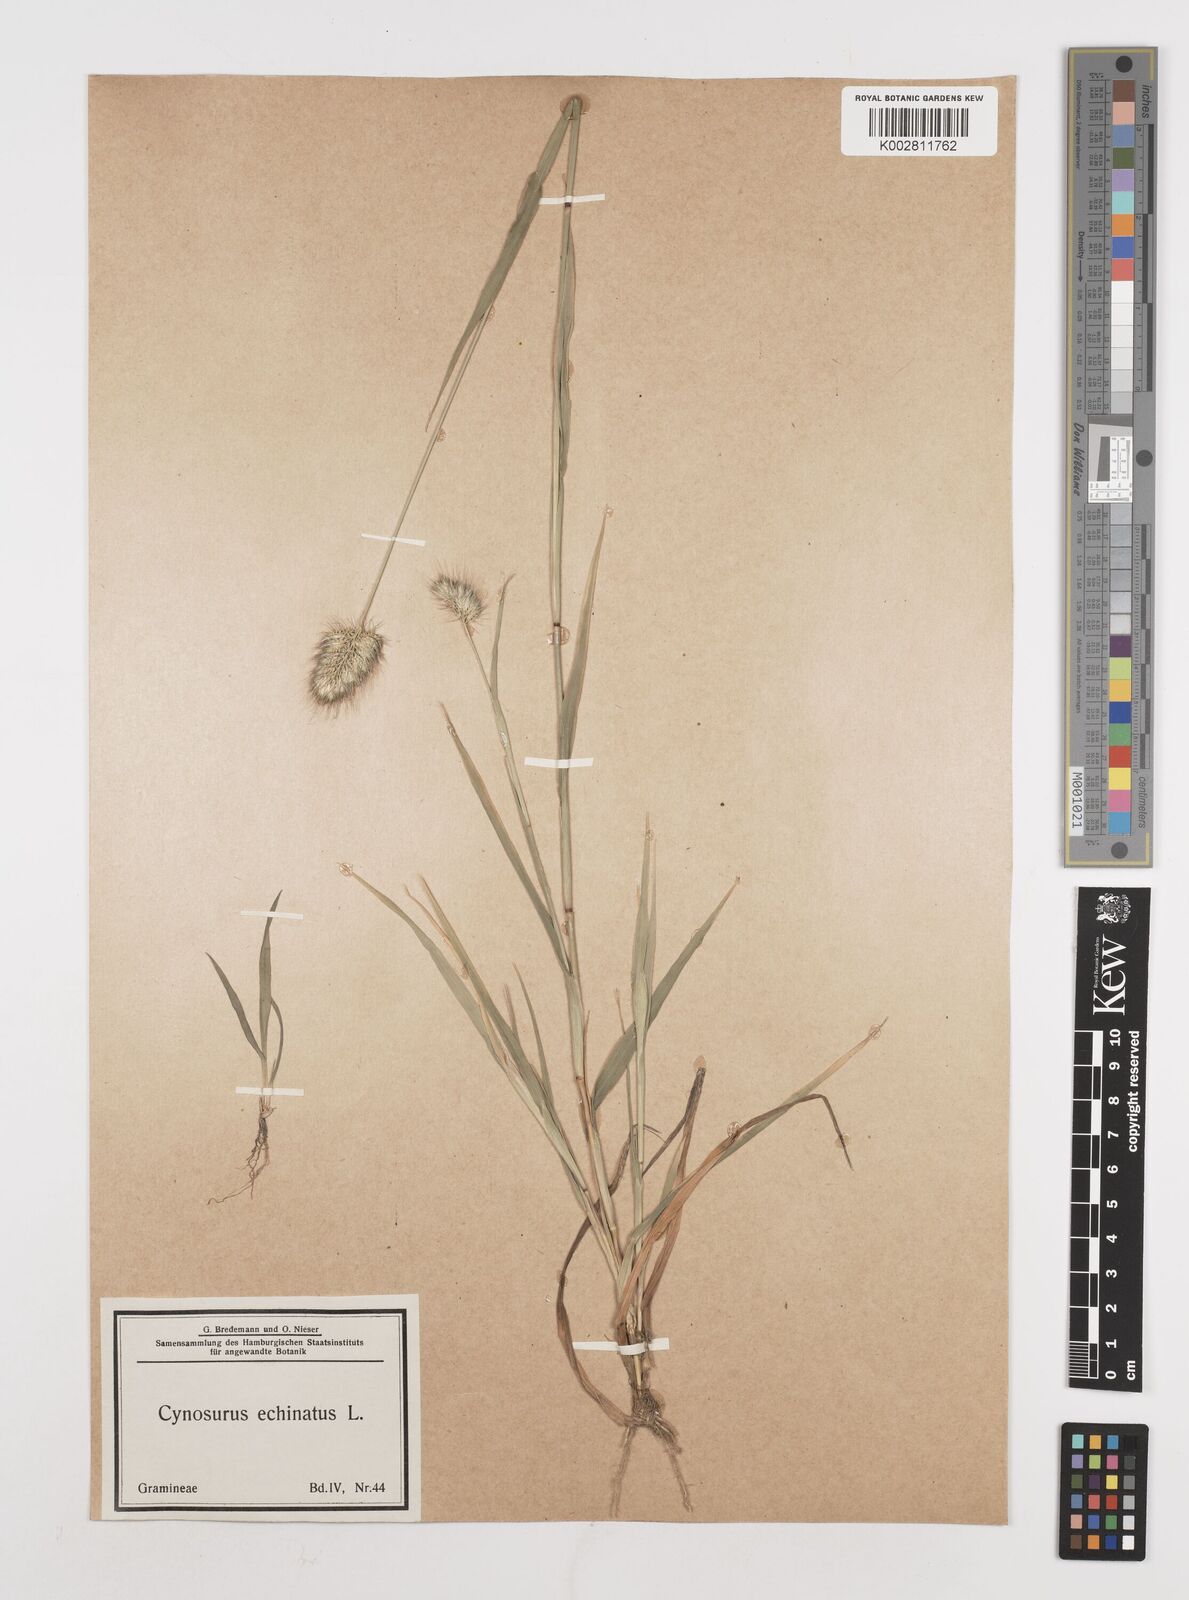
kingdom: Plantae
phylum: Tracheophyta
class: Liliopsida
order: Poales
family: Poaceae
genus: Cynosurus
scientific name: Cynosurus echinatus
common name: Rough dog's-tail
